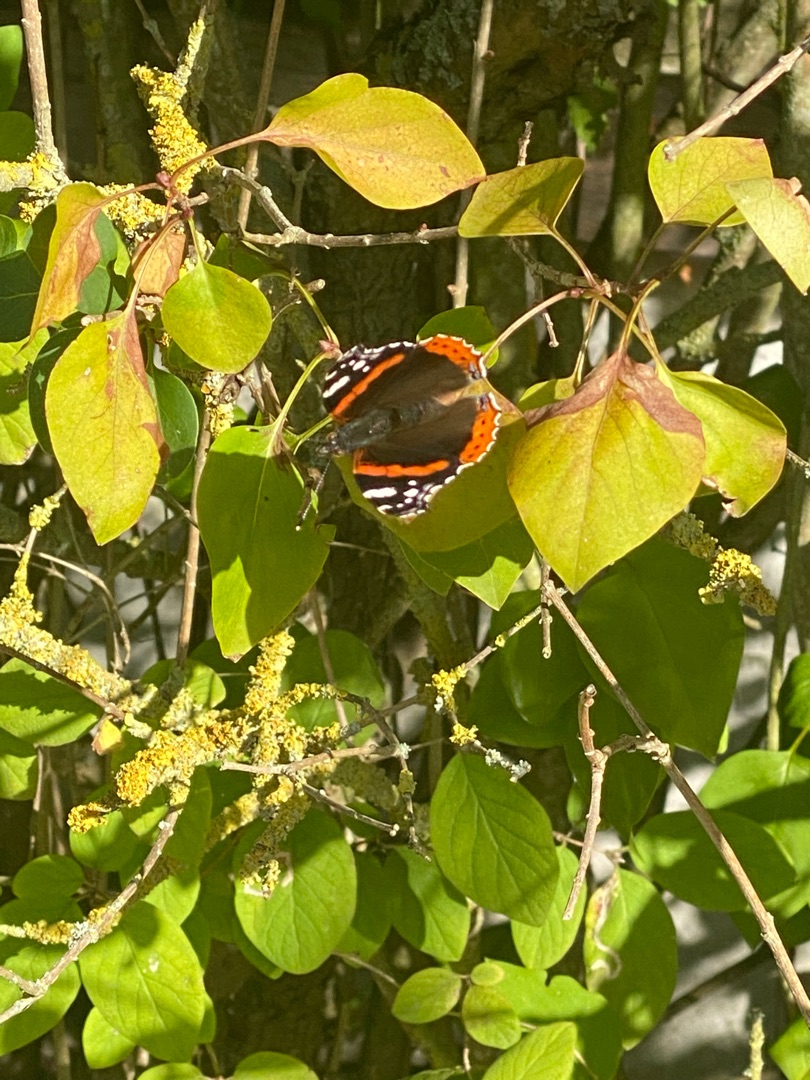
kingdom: Animalia
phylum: Arthropoda
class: Insecta
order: Lepidoptera
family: Nymphalidae
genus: Vanessa
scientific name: Vanessa atalanta
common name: Admiral
